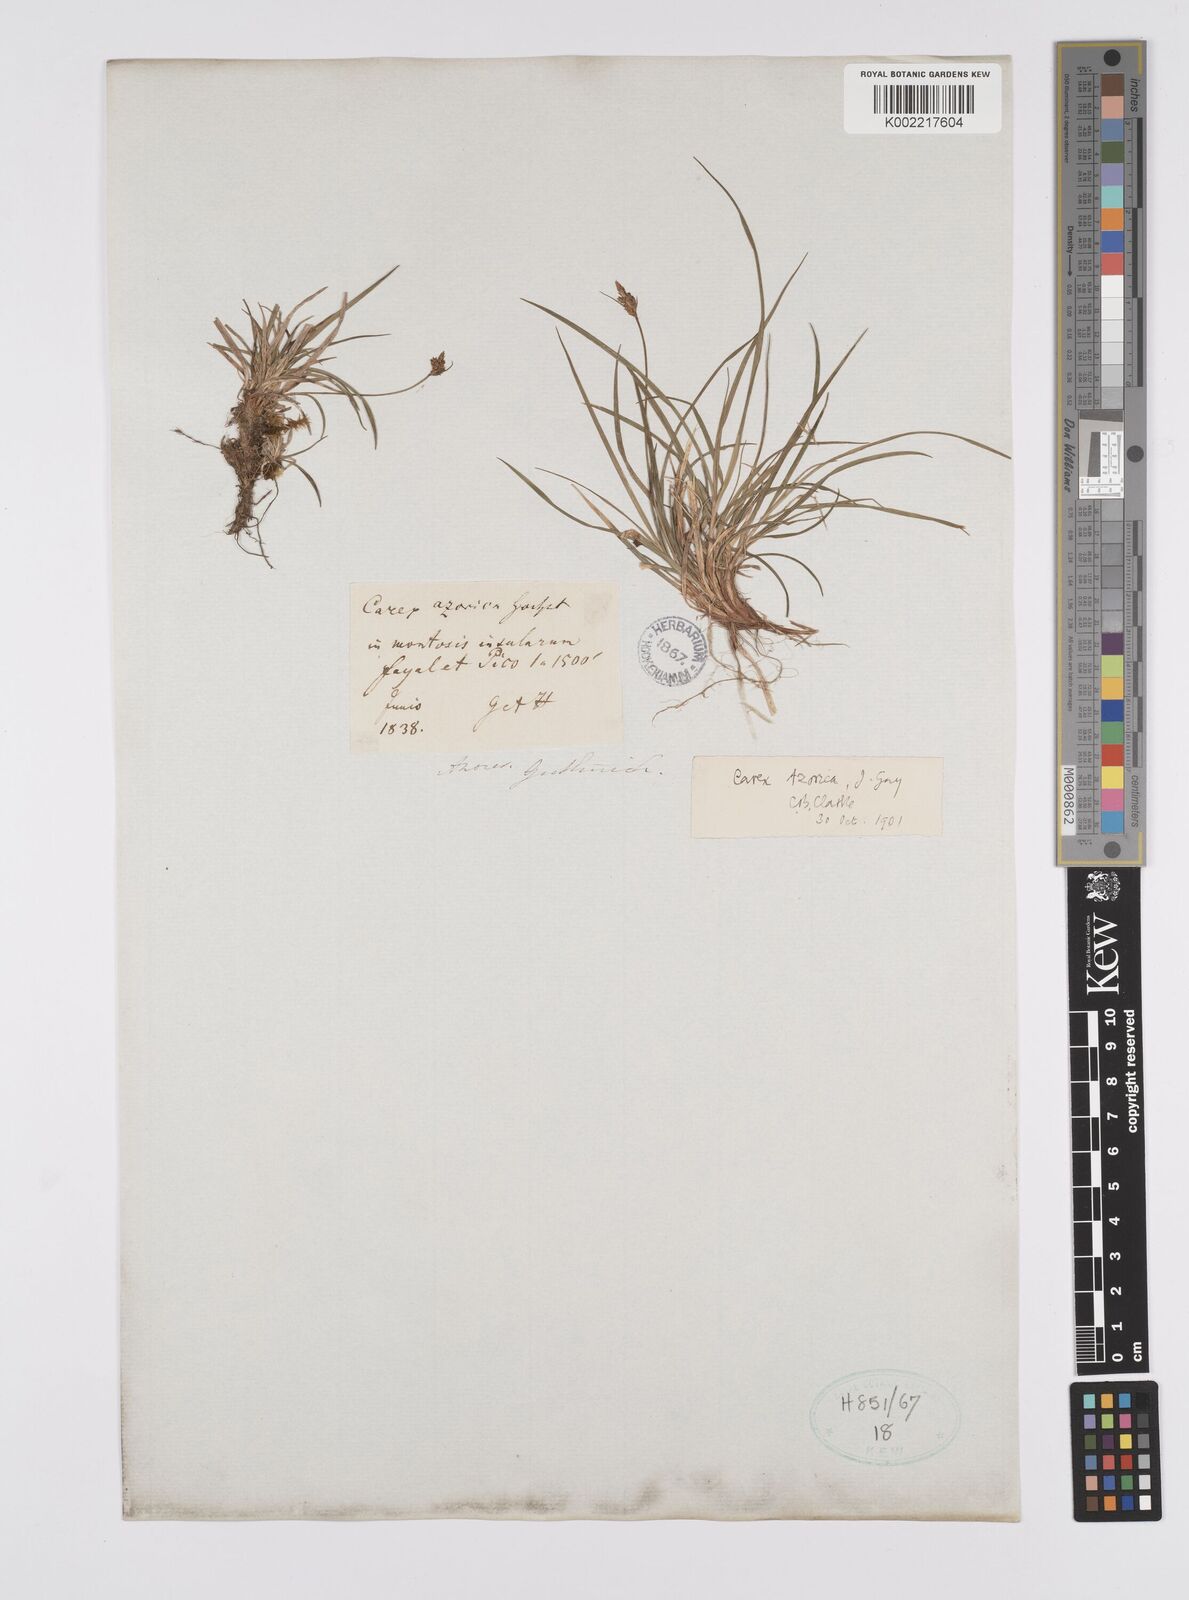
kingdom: Plantae
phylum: Tracheophyta
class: Liliopsida
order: Poales
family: Cyperaceae
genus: Carex
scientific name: Carex pilulifera
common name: Pill sedge
